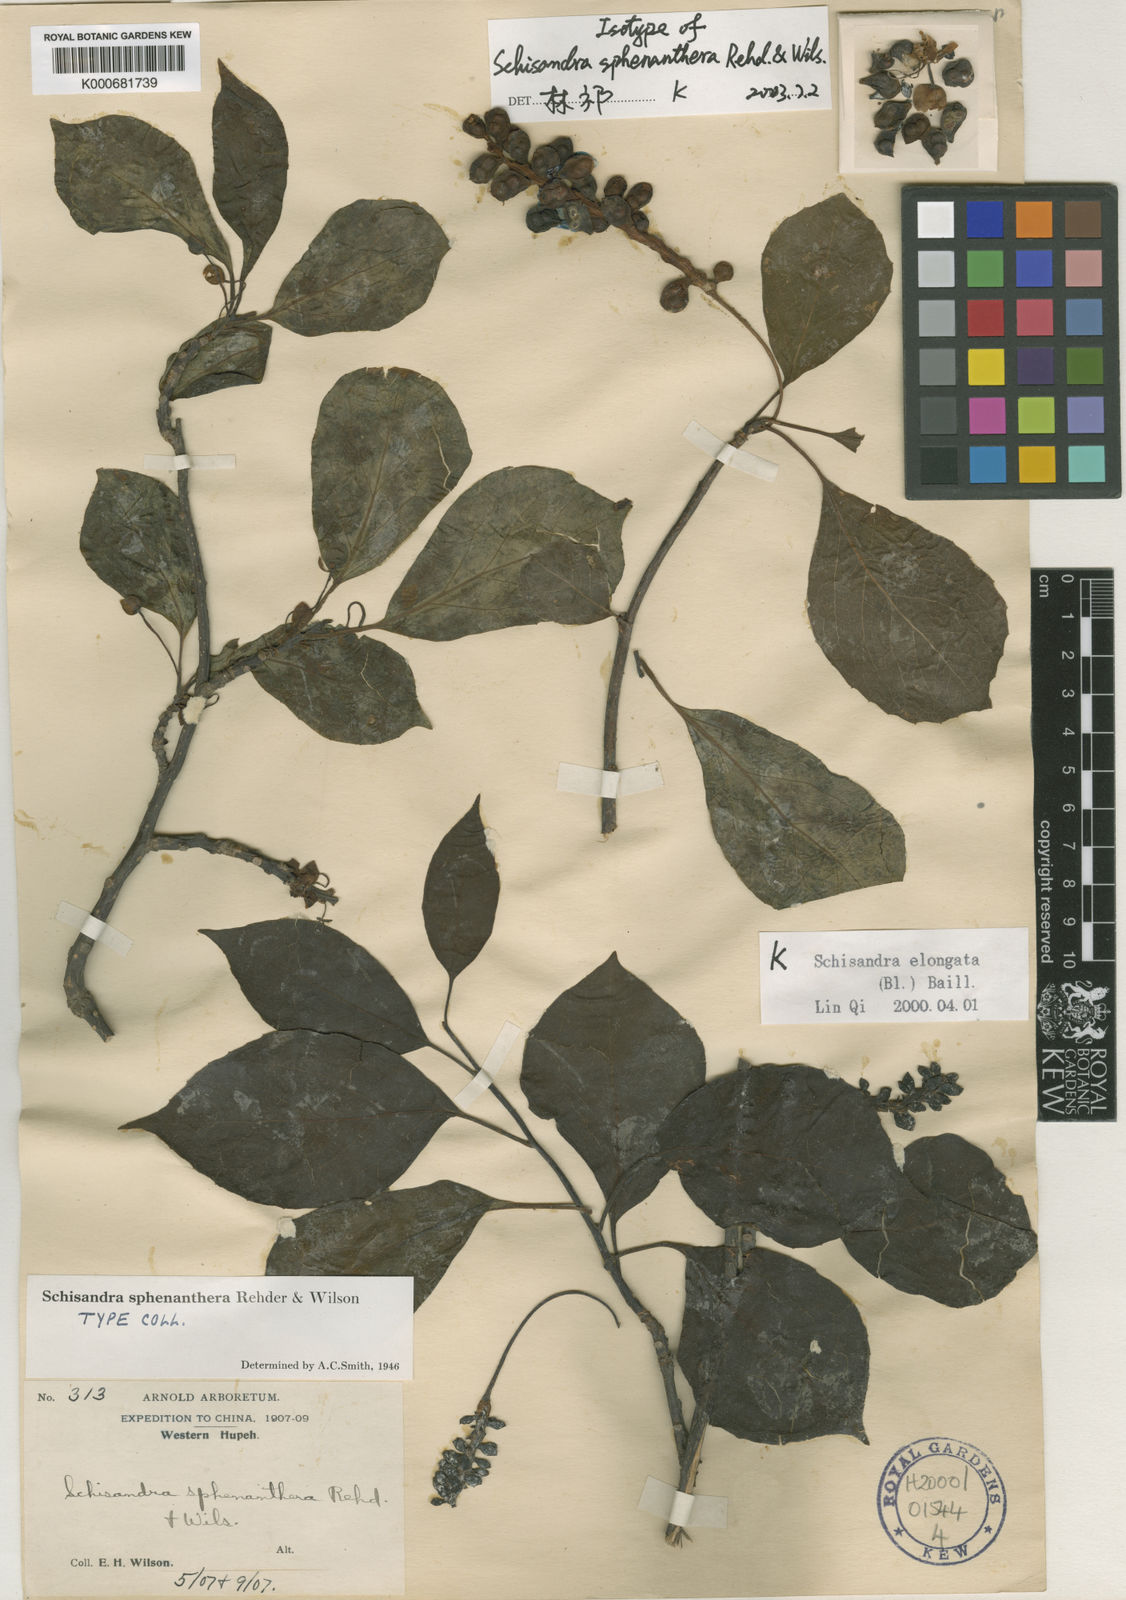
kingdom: Plantae
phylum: Tracheophyta
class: Magnoliopsida
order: Austrobaileyales
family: Schisandraceae
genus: Schisandra
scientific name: Schisandra sphenanthera
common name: Lemonwood
